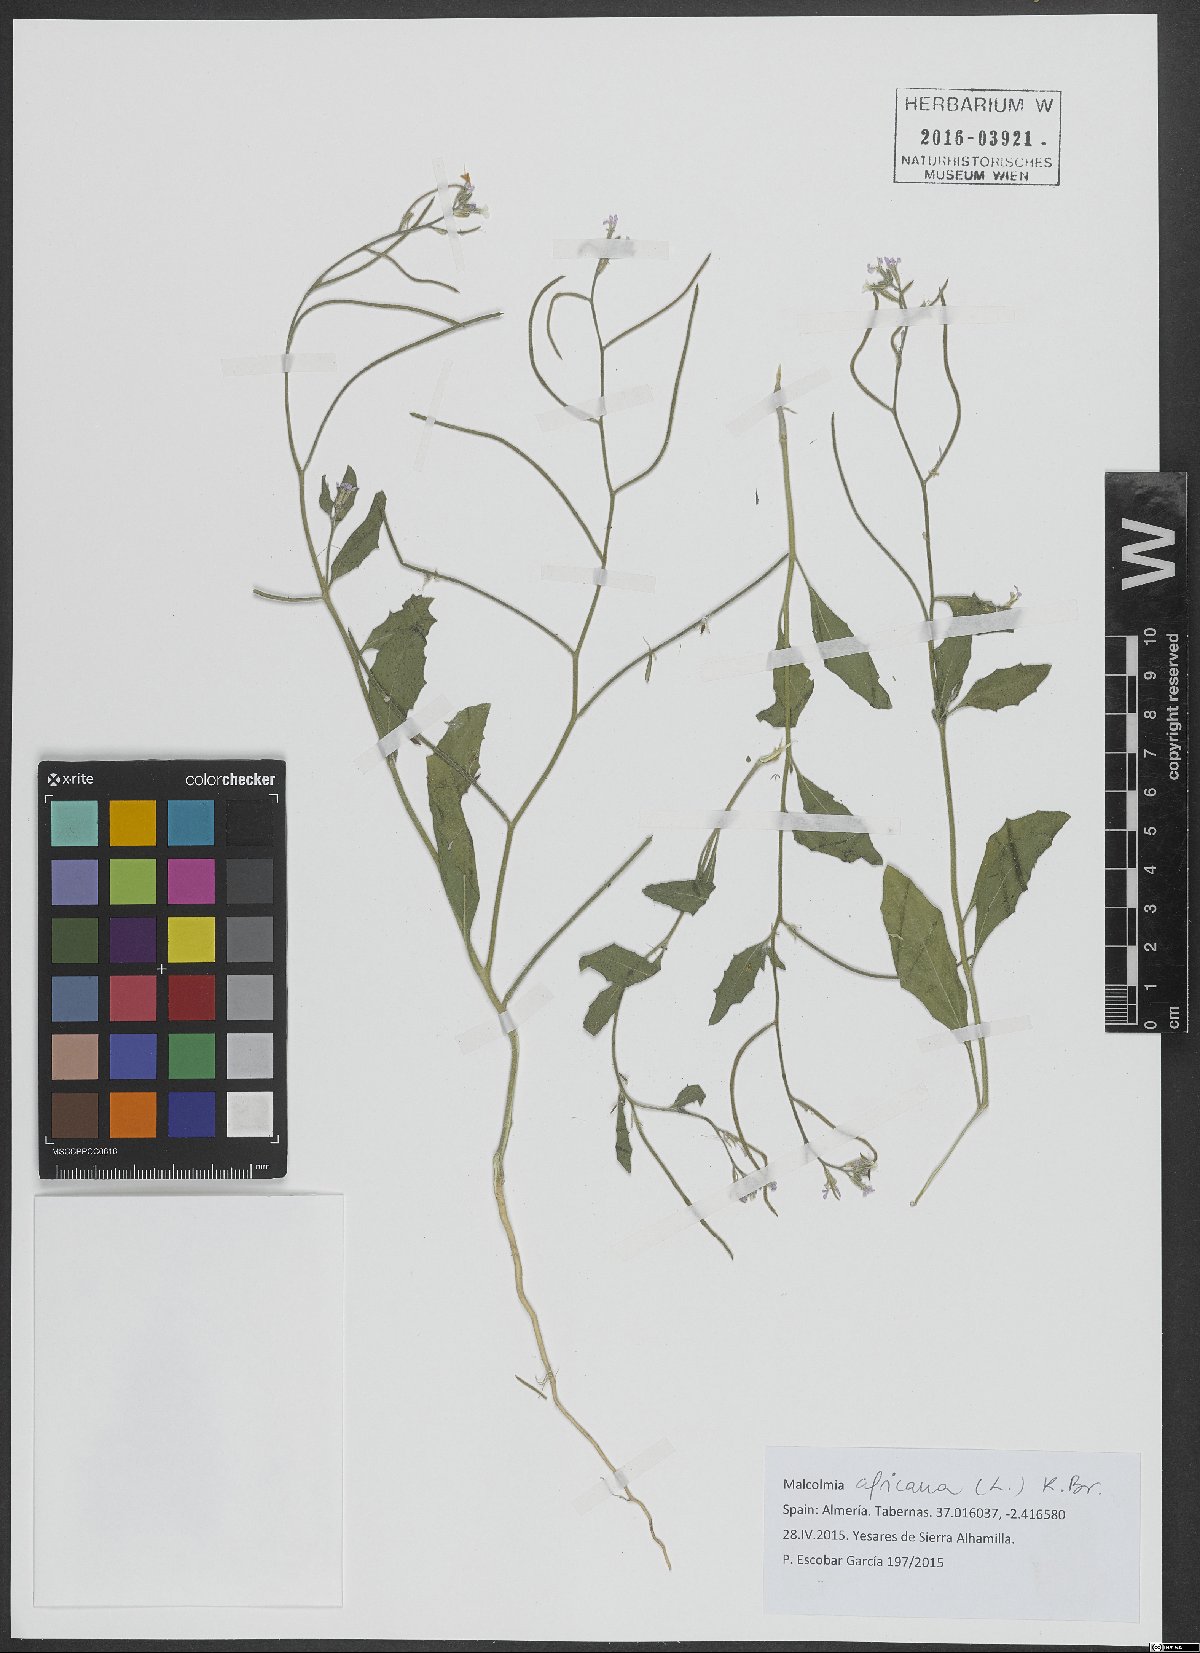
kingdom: Plantae
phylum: Tracheophyta
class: Magnoliopsida
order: Brassicales
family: Brassicaceae
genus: Malcolmia
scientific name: Malcolmia africana
